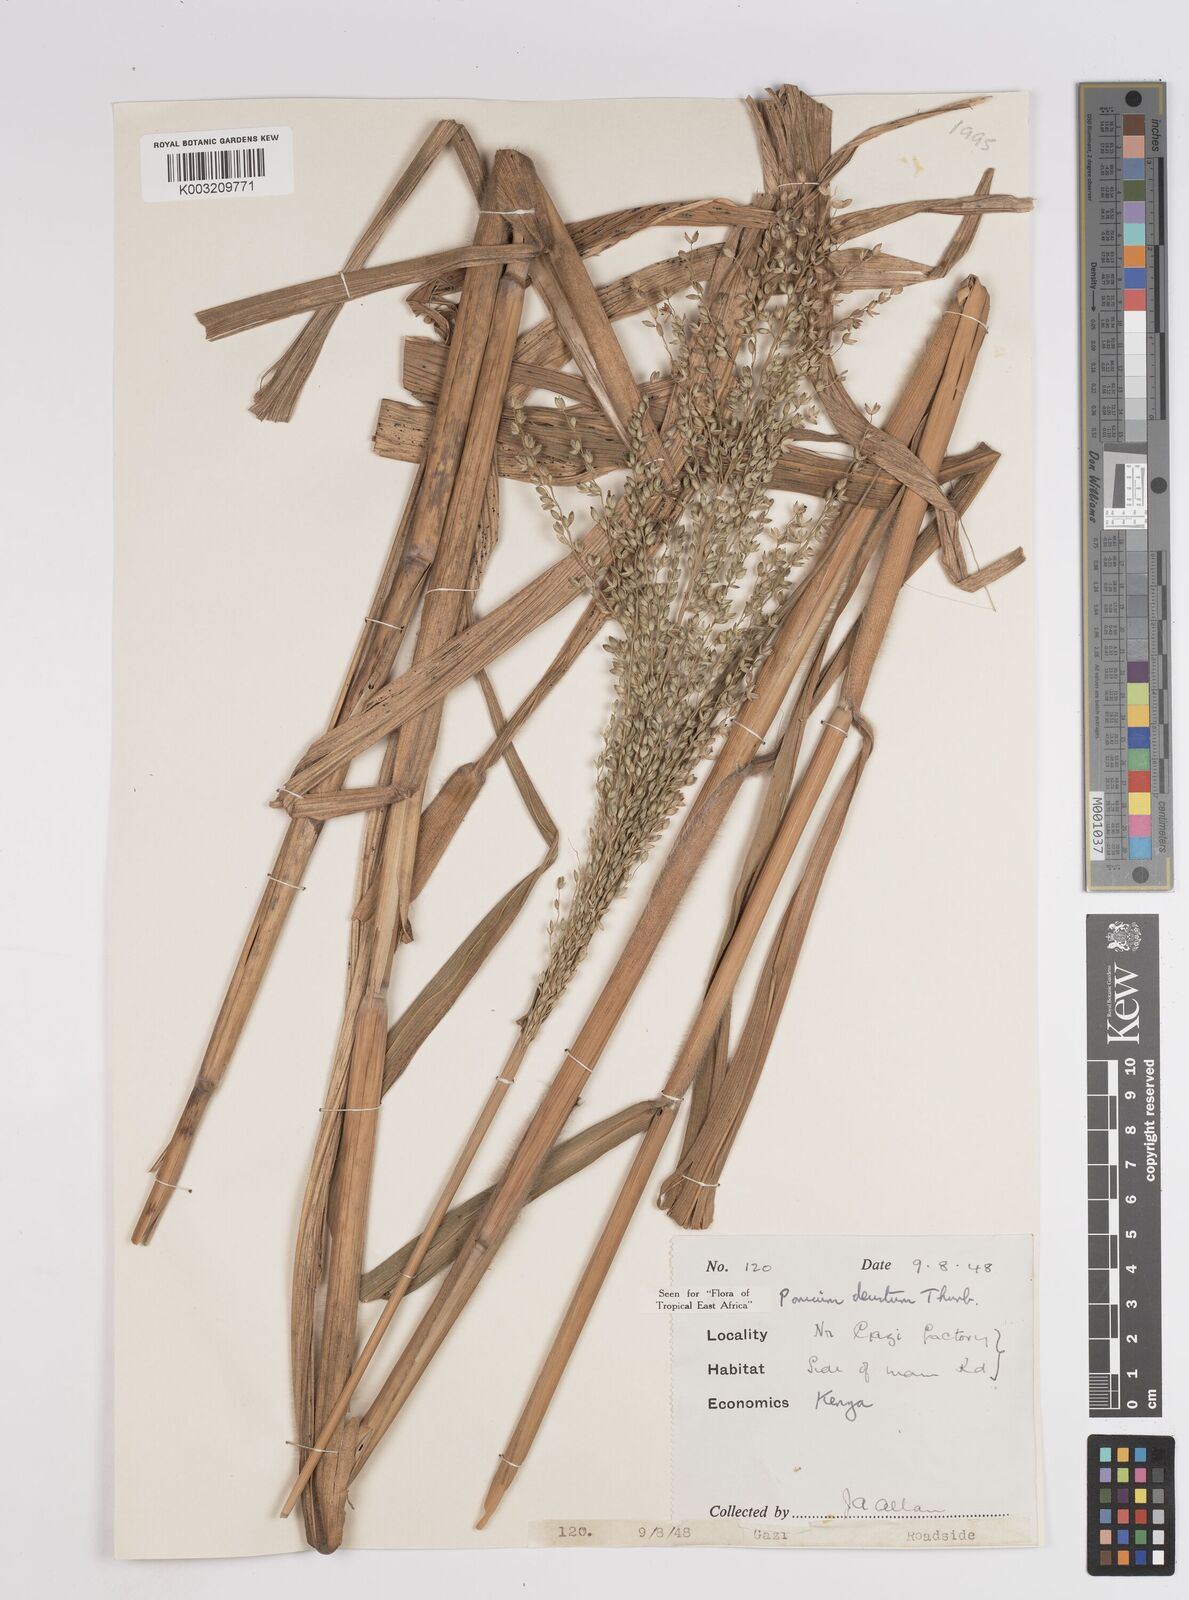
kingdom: Plantae
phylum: Tracheophyta
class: Liliopsida
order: Poales
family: Poaceae
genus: Panicum
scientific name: Panicum
